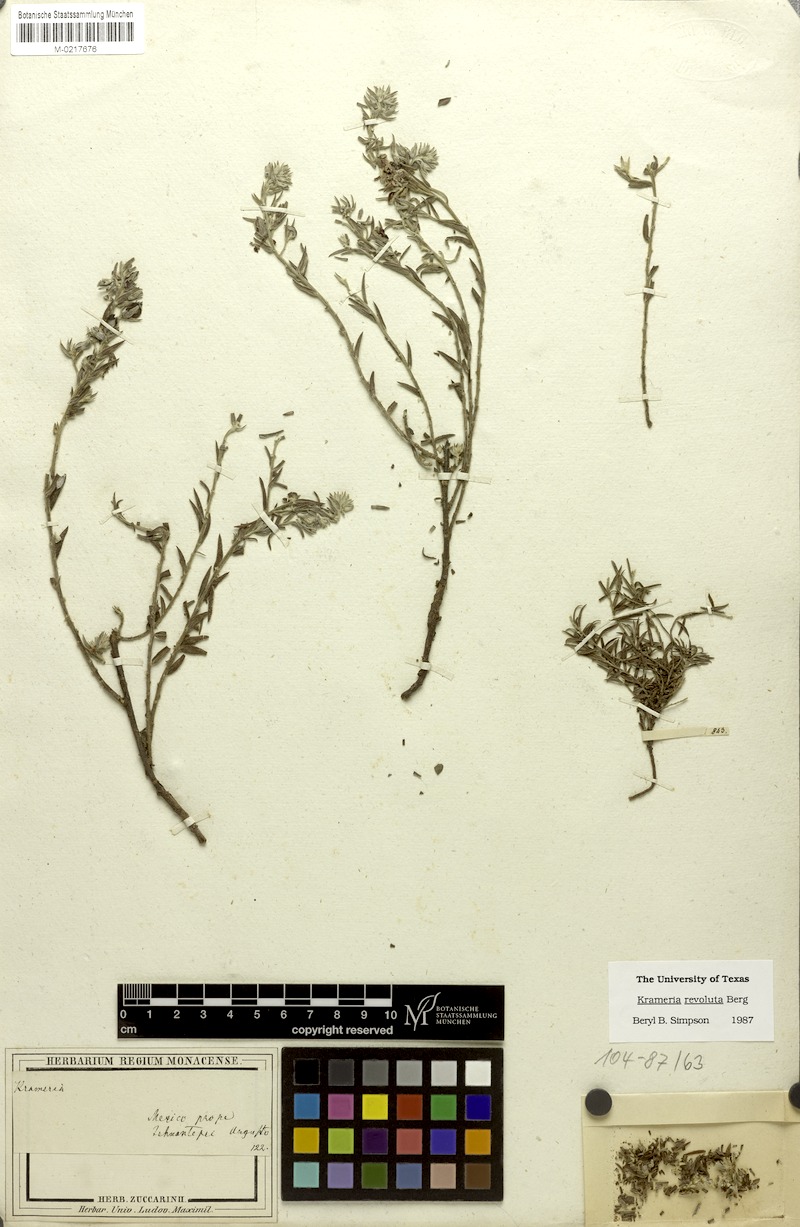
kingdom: Plantae
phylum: Tracheophyta
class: Magnoliopsida
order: Zygophyllales
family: Krameriaceae
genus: Krameria
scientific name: Krameria revoluta
